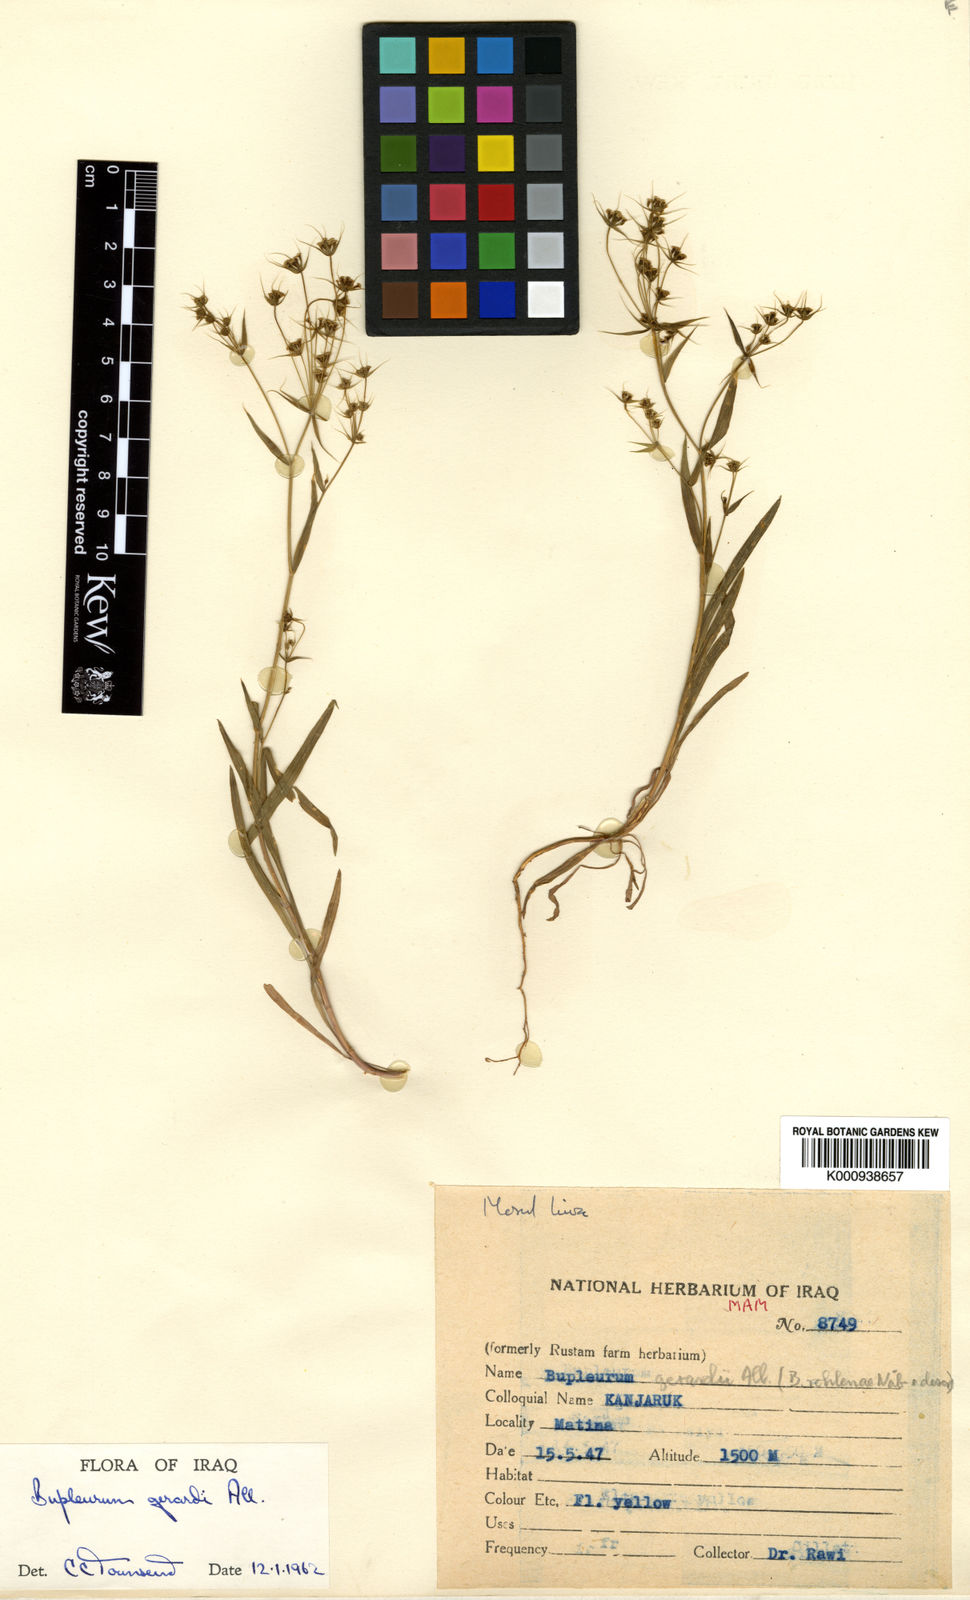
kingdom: Plantae
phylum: Tracheophyta
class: Magnoliopsida
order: Apiales
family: Apiaceae
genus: Bupleurum
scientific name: Bupleurum
